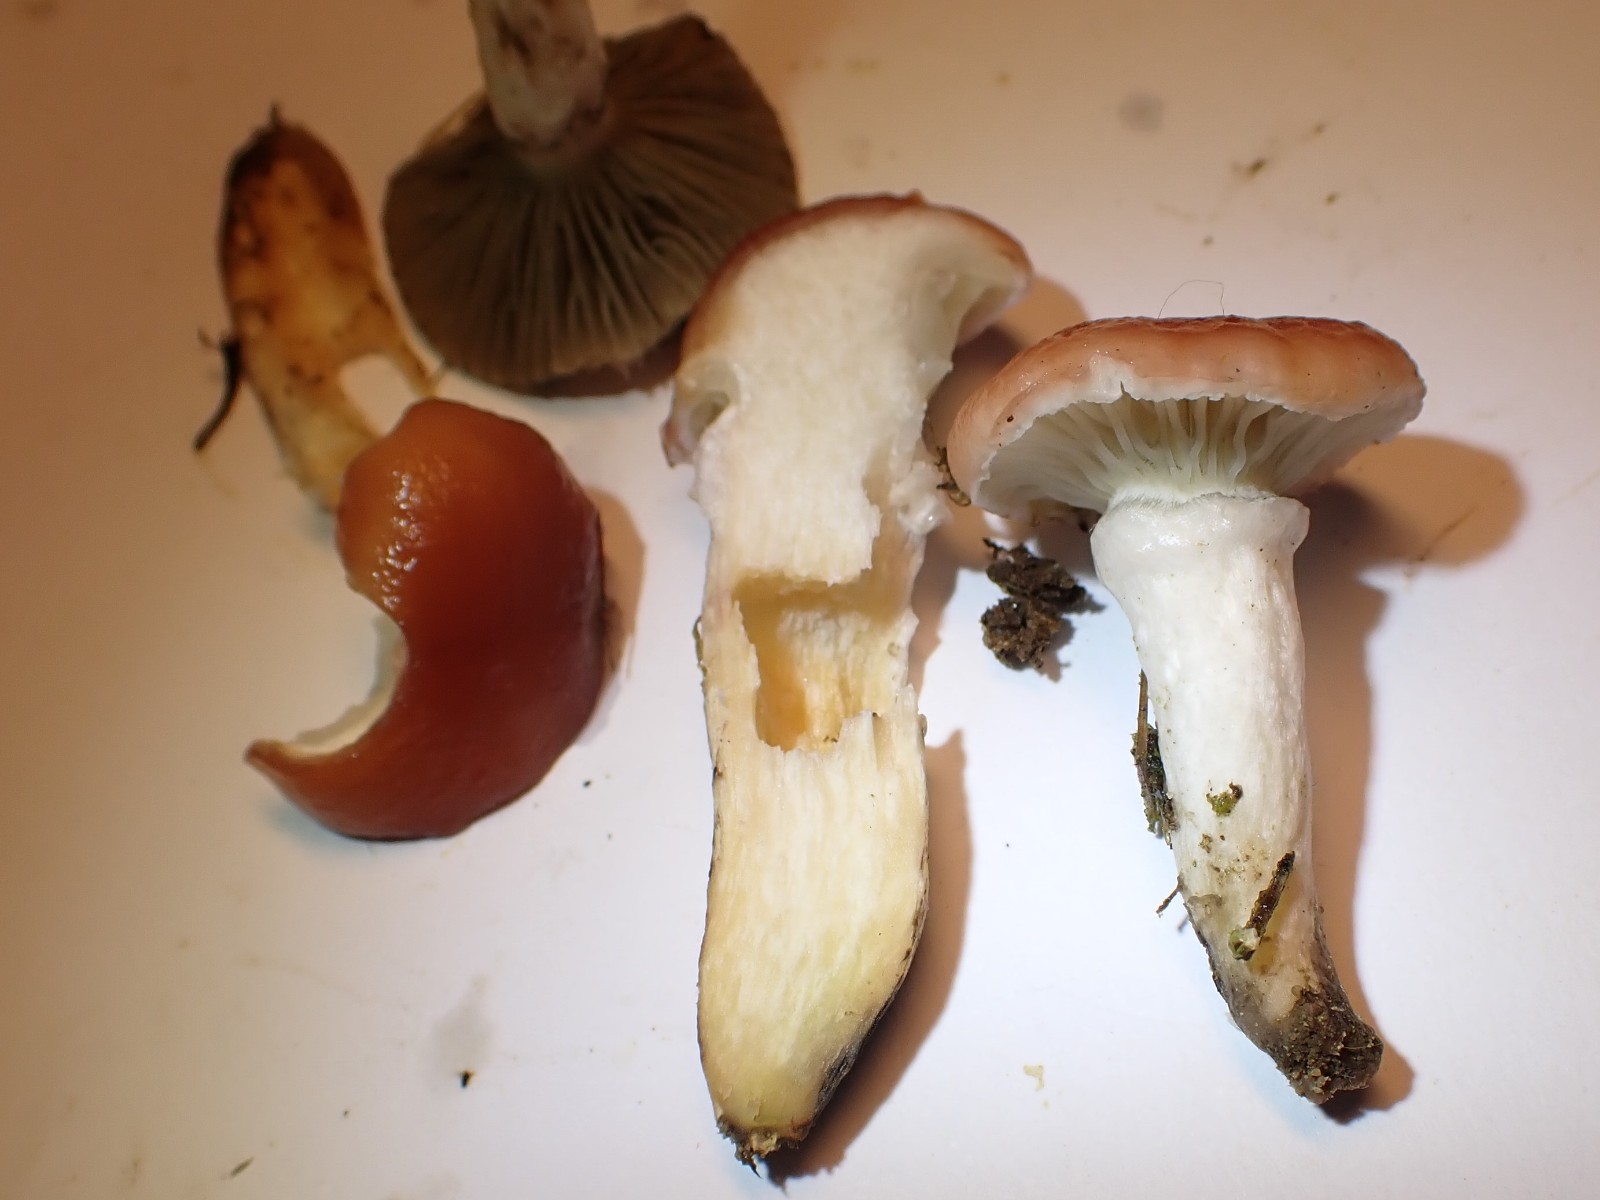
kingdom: Fungi
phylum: Basidiomycota
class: Agaricomycetes
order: Boletales
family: Gomphidiaceae
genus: Gomphidius
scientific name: Gomphidius roseus
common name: rosenrød slimslør
